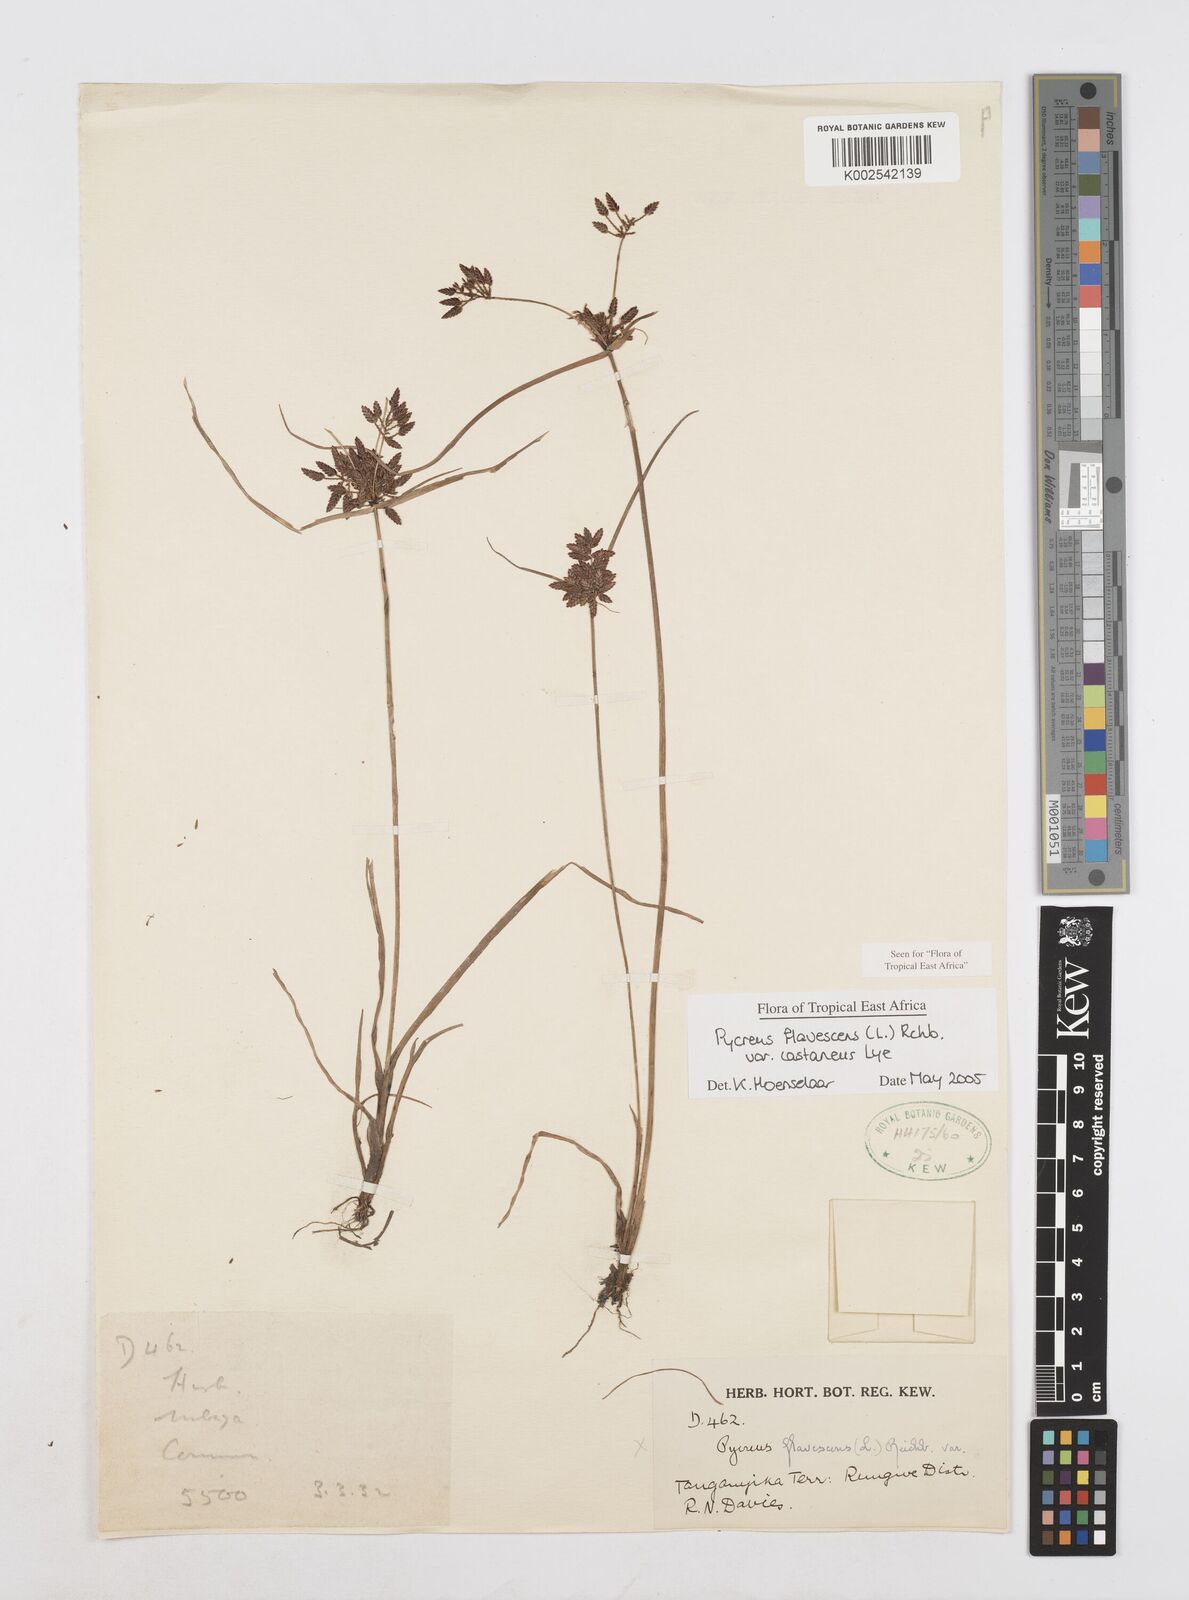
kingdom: Plantae
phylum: Tracheophyta
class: Liliopsida
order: Poales
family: Cyperaceae
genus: Cyperus
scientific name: Cyperus flavescens
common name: Yellow galingale
